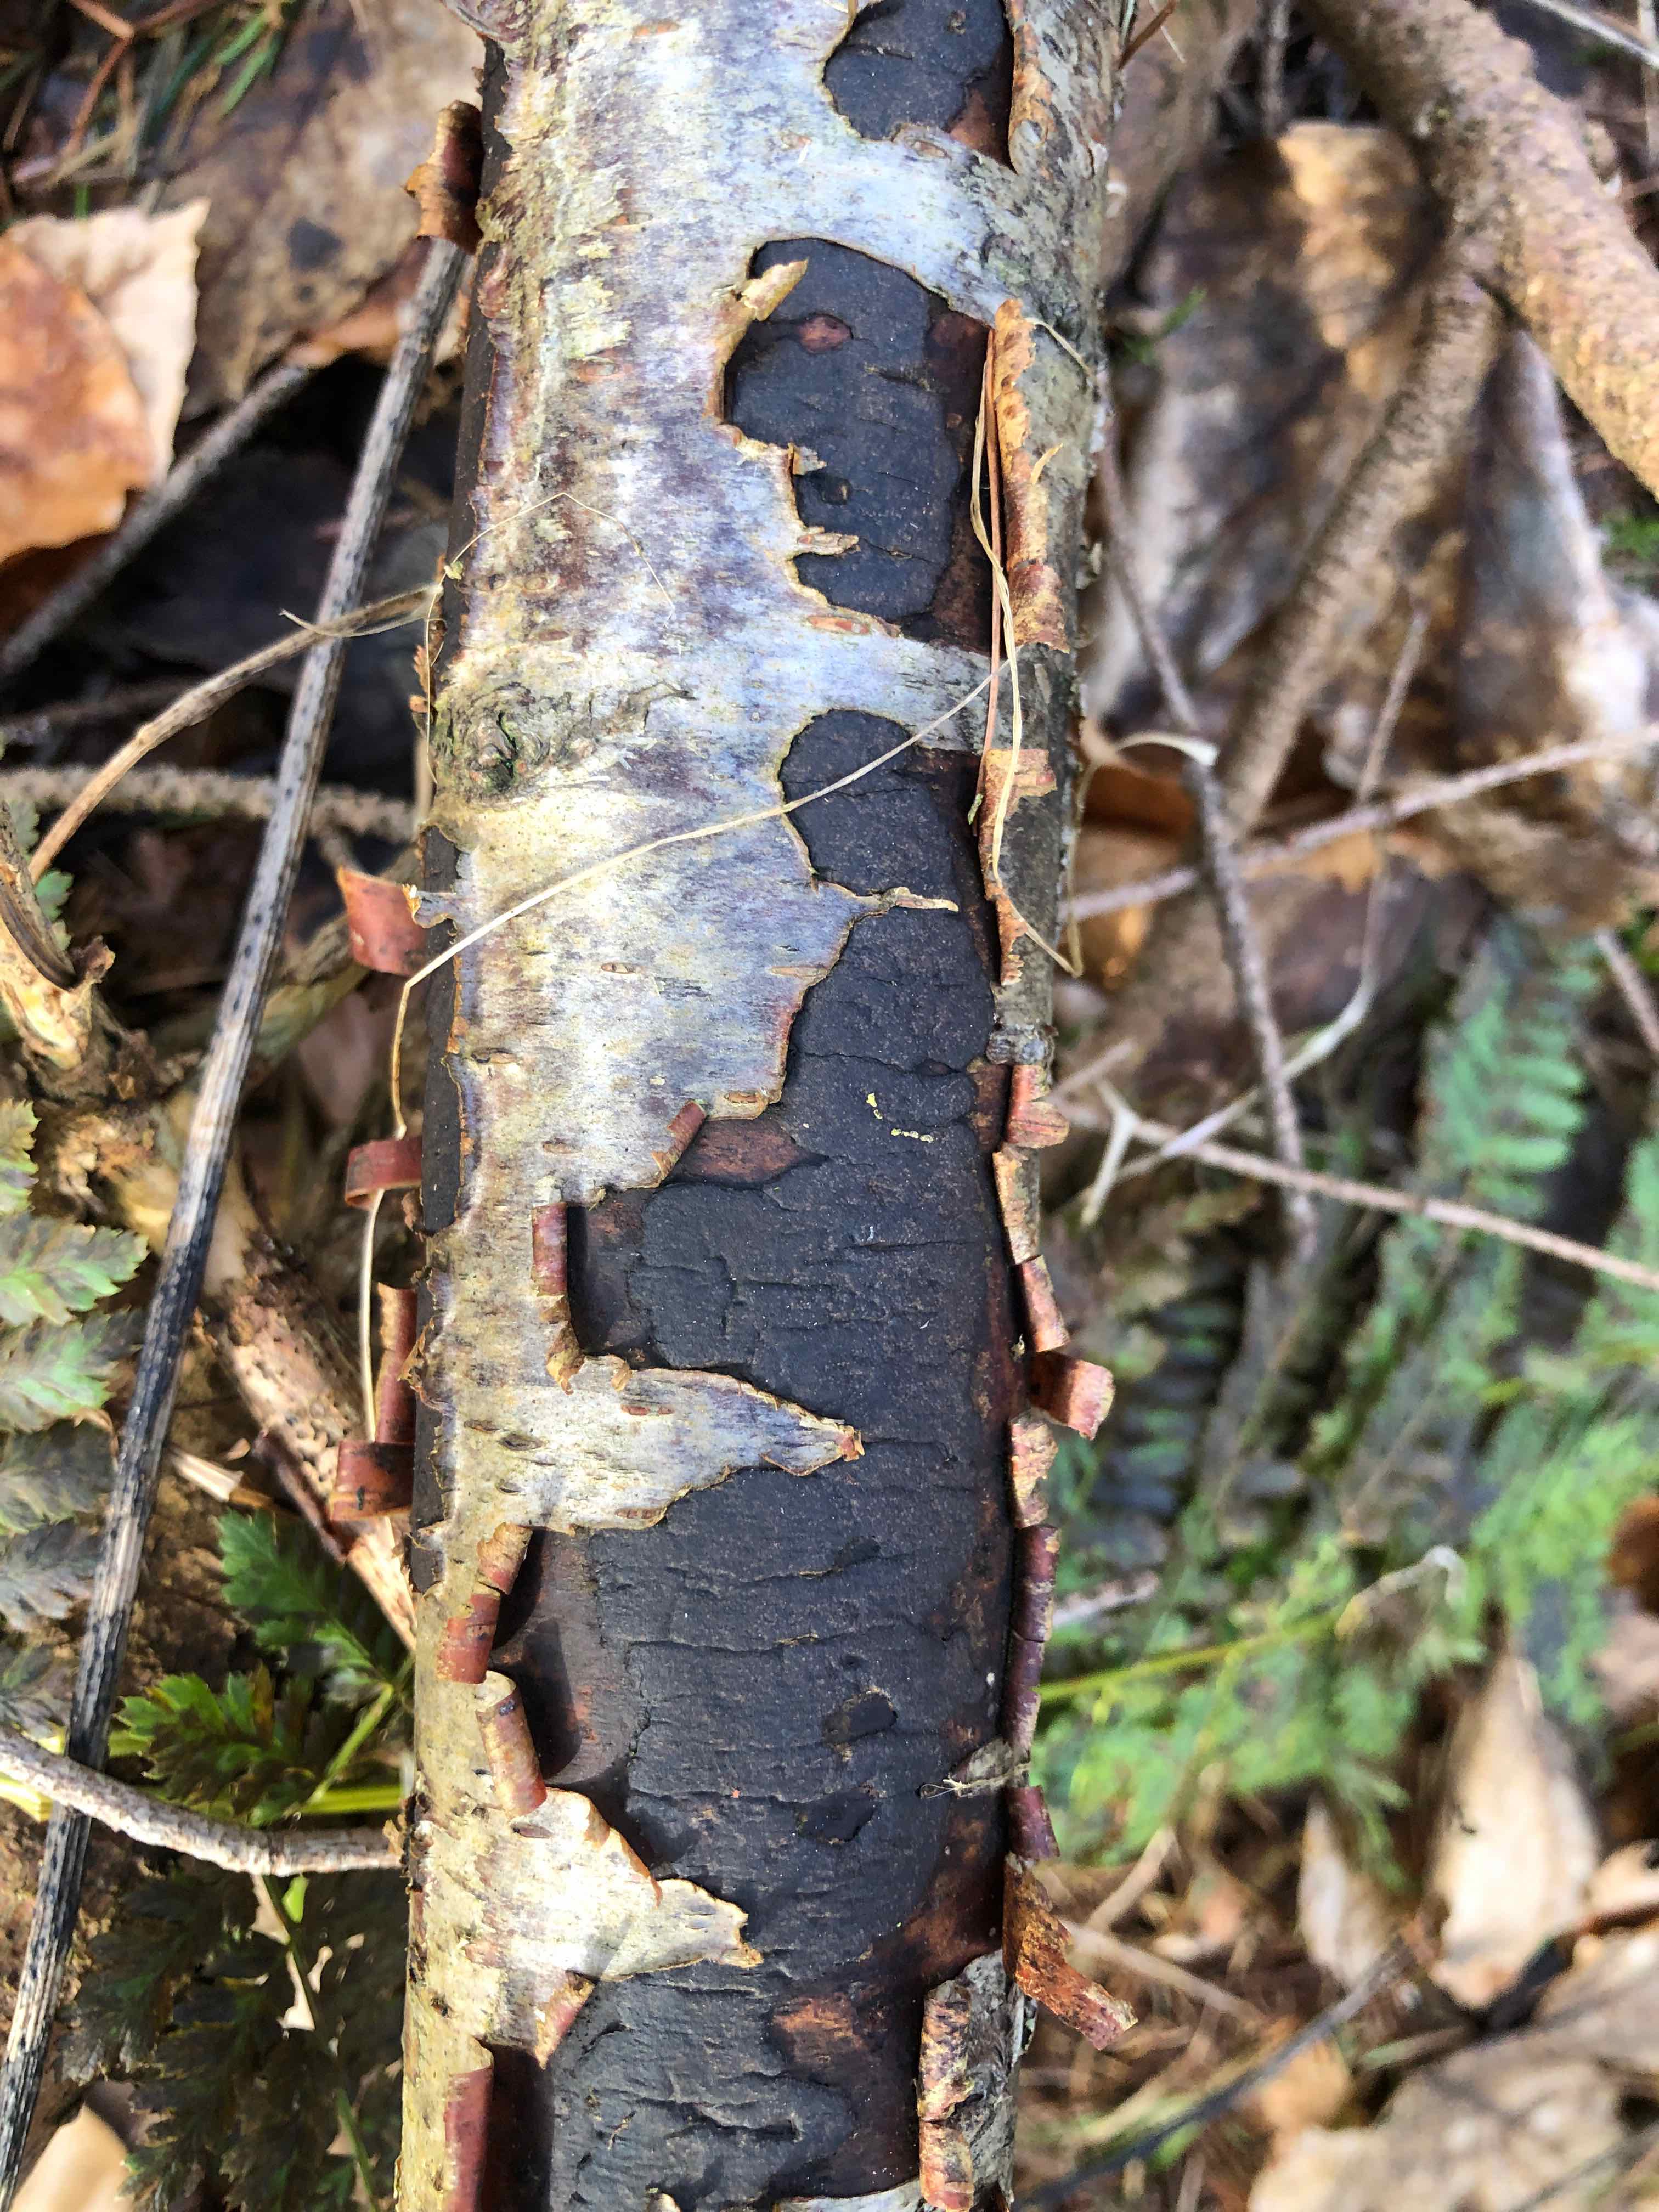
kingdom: Fungi
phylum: Ascomycota
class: Sordariomycetes
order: Xylariales
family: Diatrypaceae
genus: Diatrype
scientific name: Diatrype
